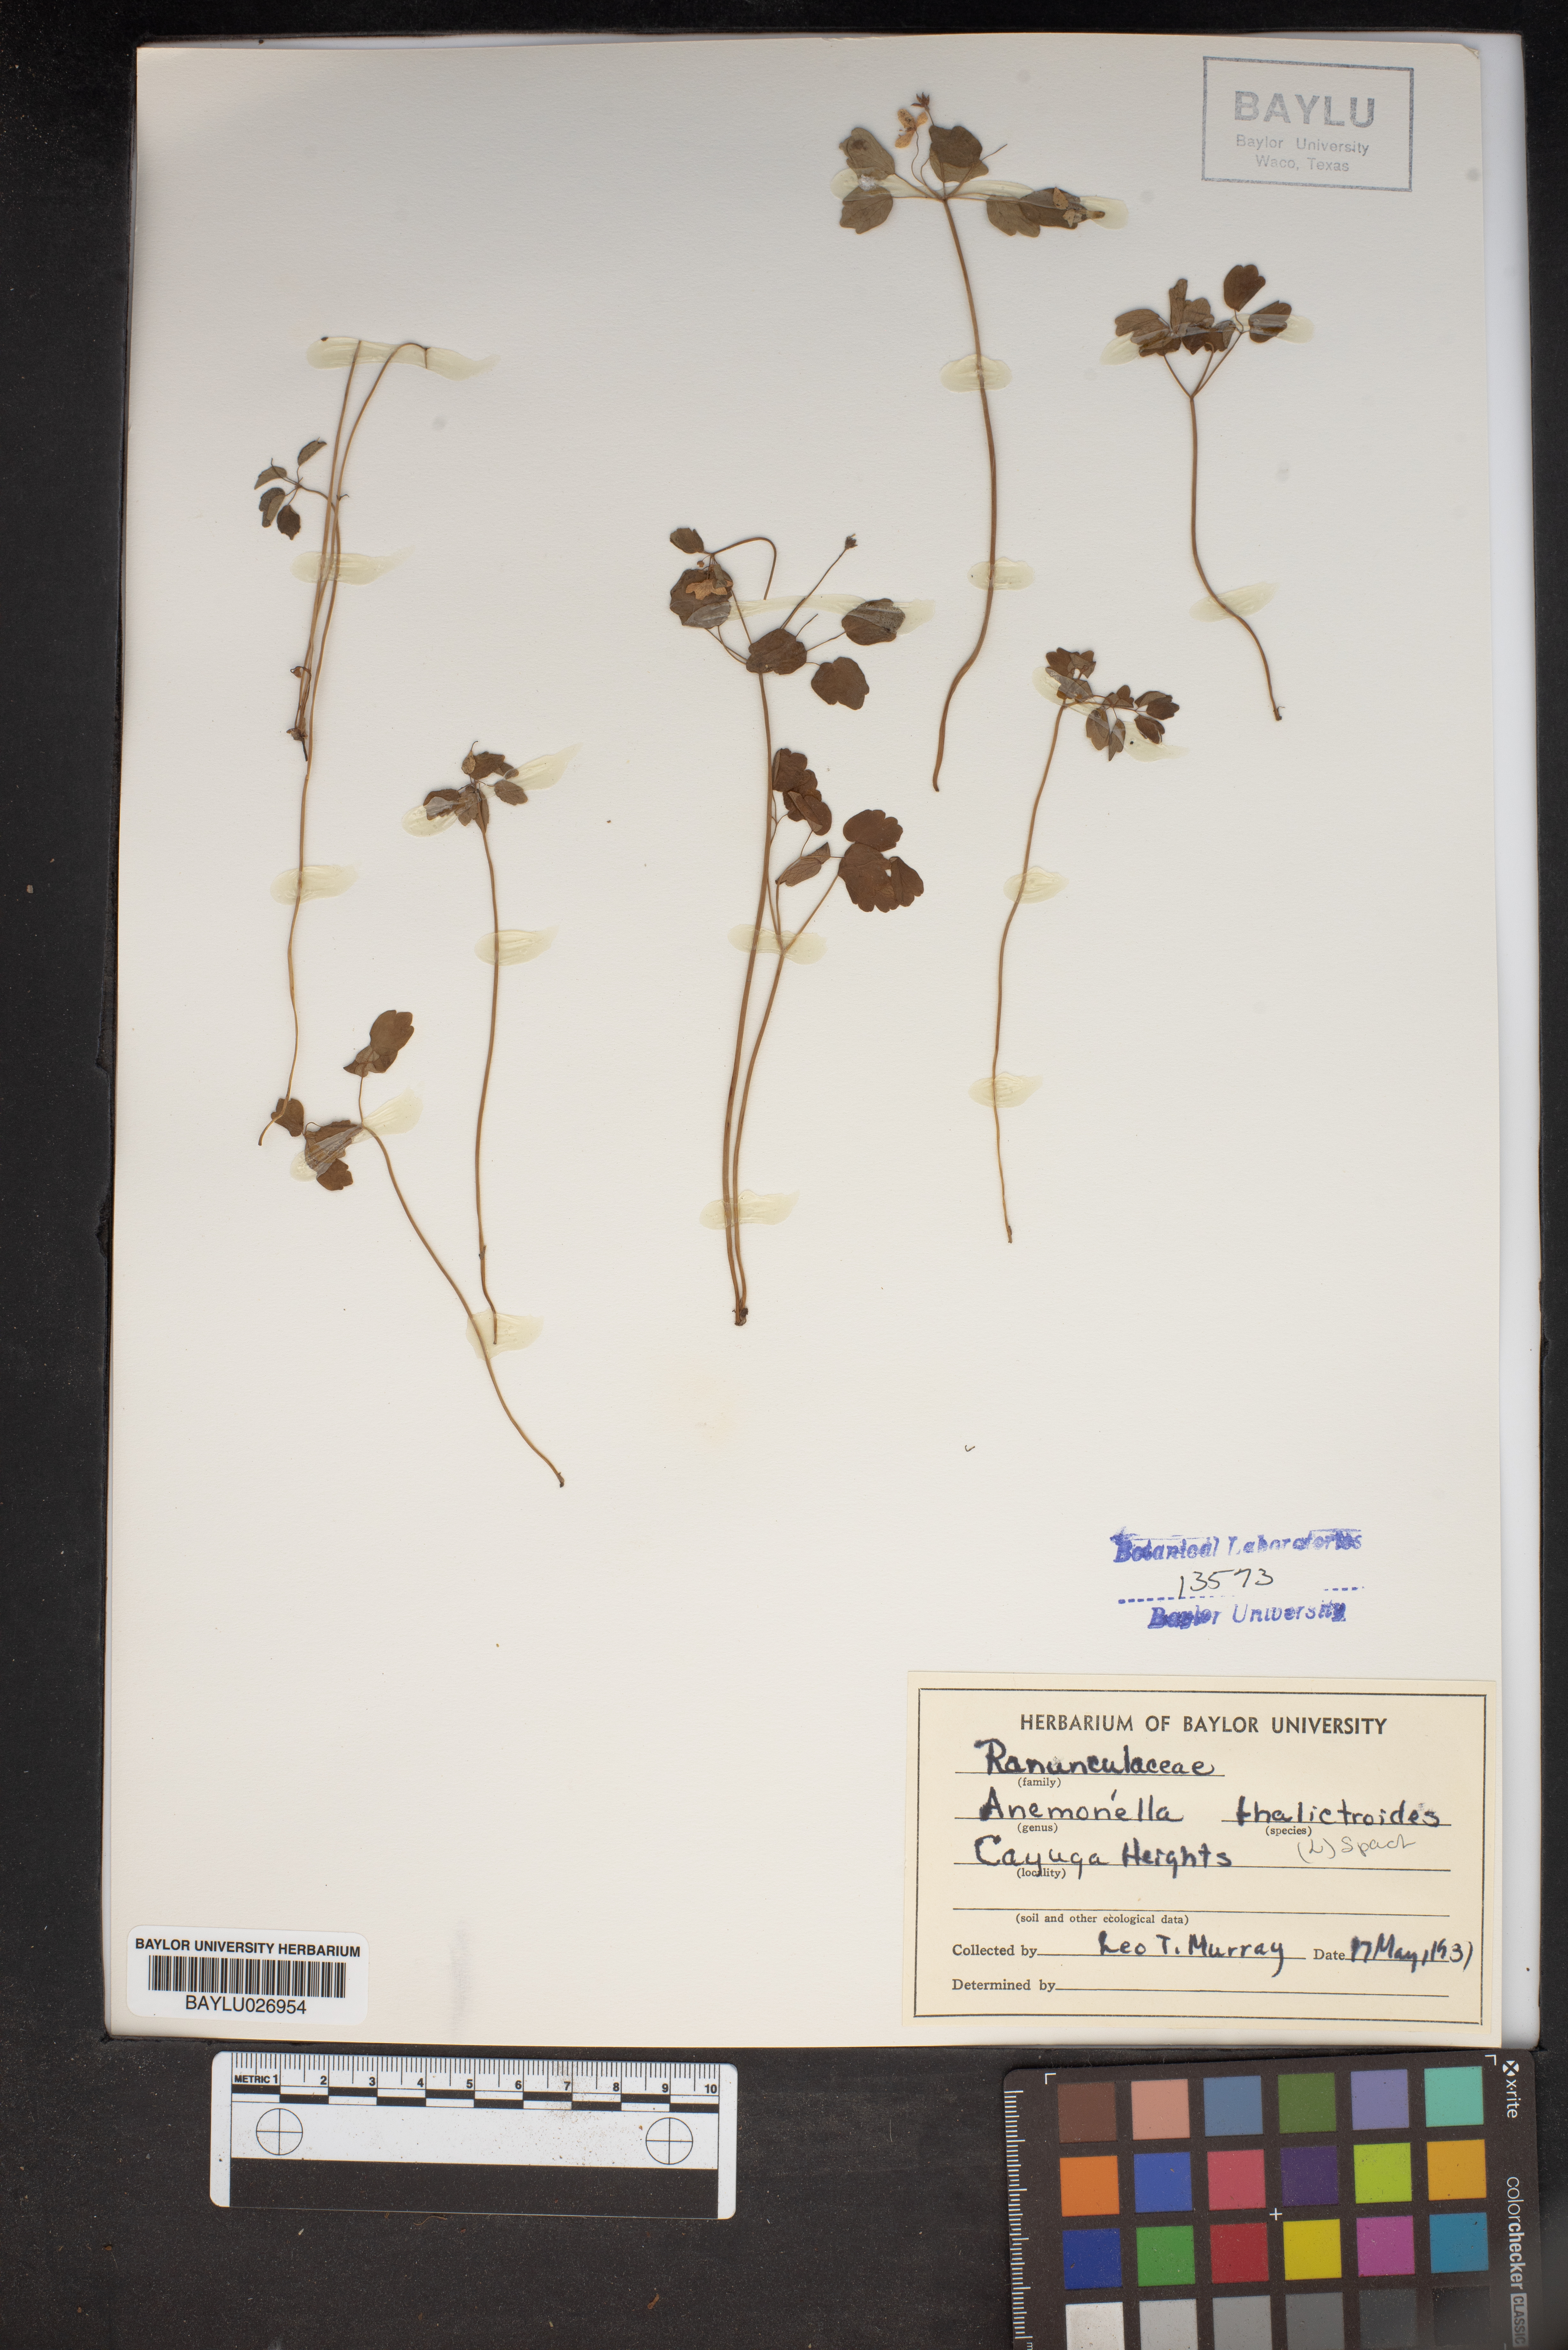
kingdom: Plantae
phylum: Tracheophyta
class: Magnoliopsida
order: Ranunculales
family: Ranunculaceae
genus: Thalictrum
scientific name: Thalictrum thalictroides
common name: Rue-anemone
